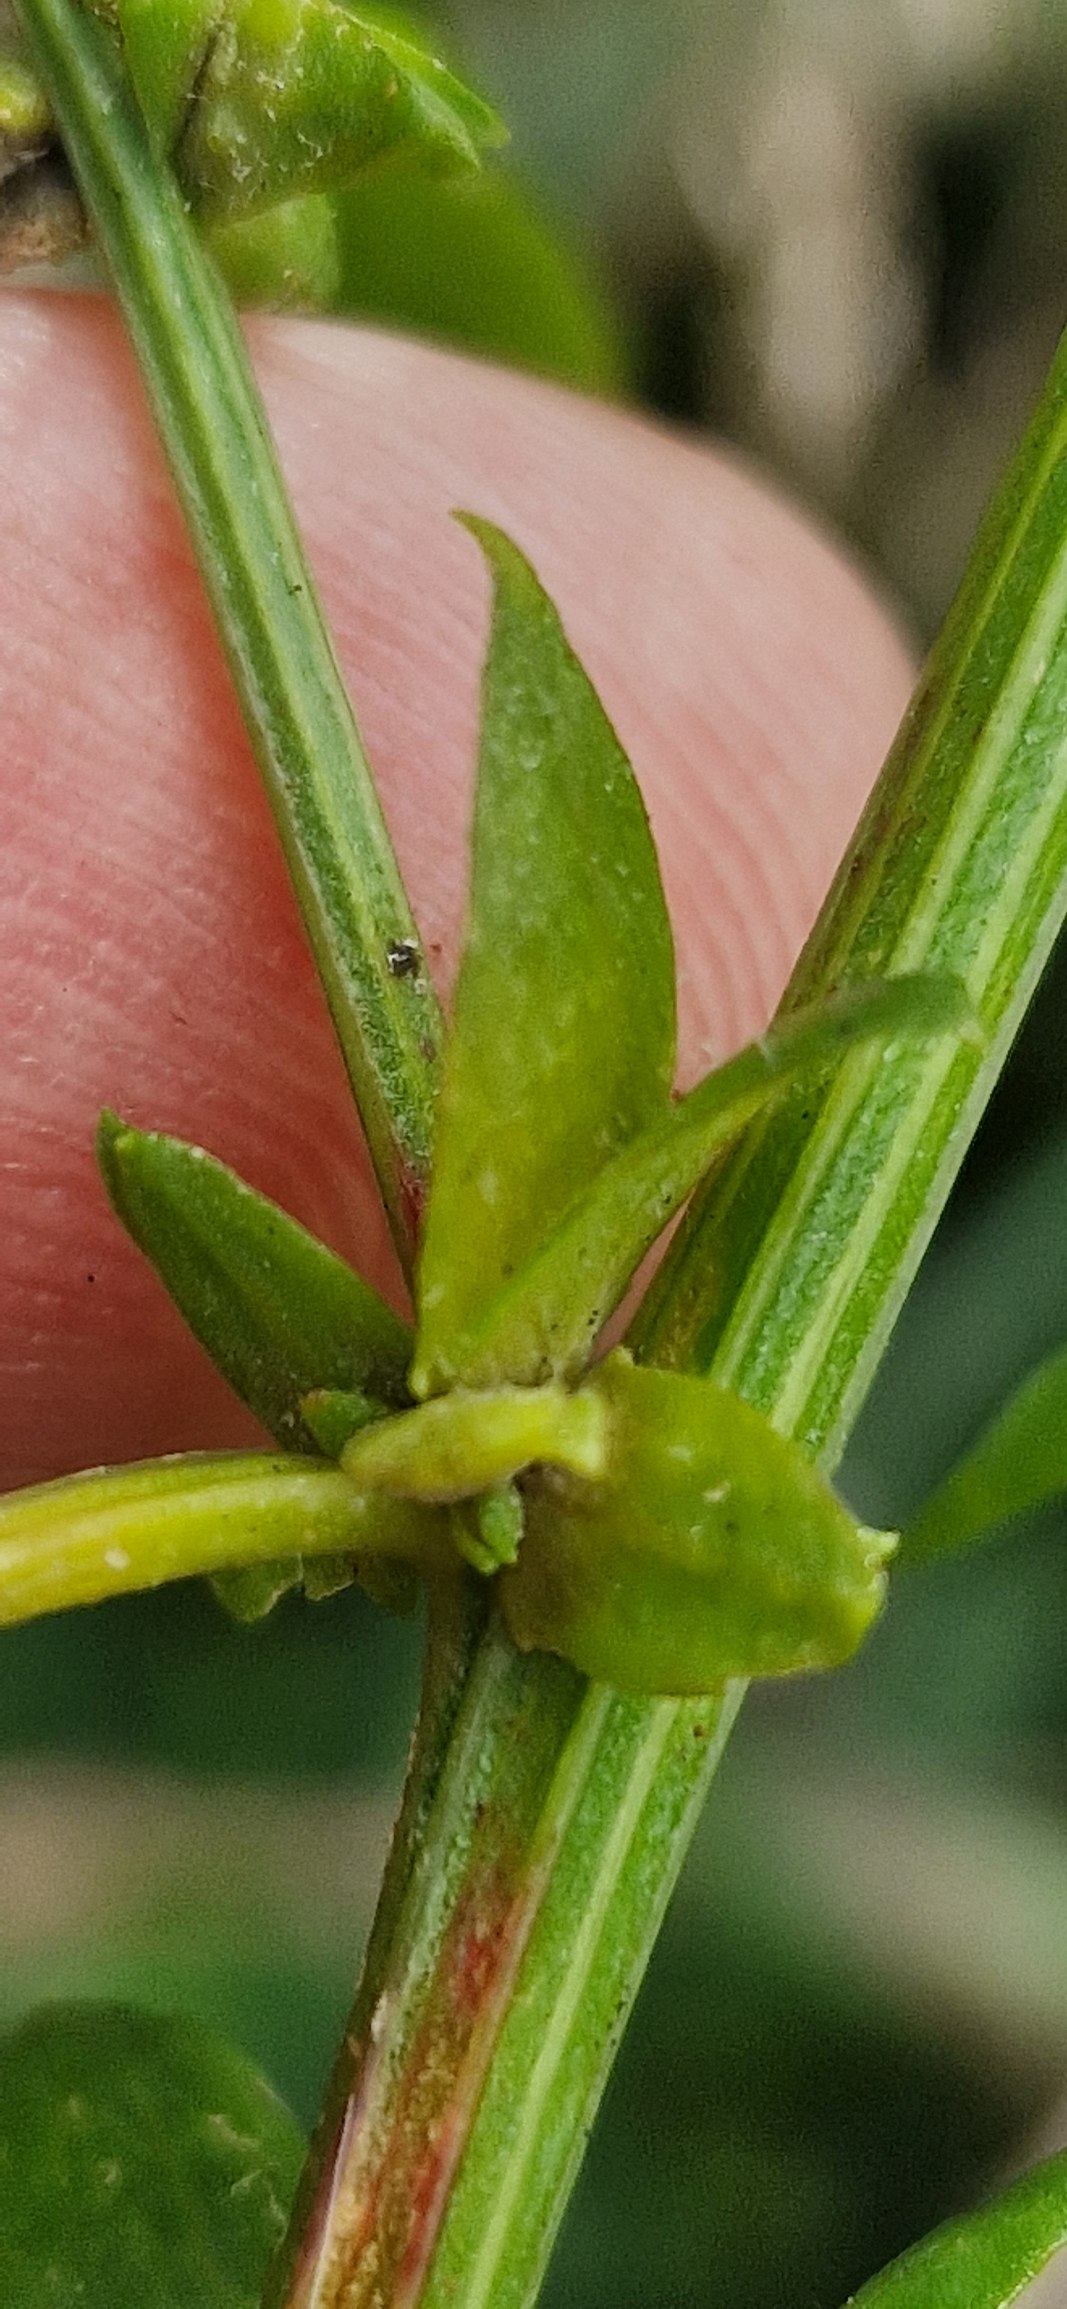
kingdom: Plantae
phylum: Tracheophyta
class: Magnoliopsida
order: Caryophyllales
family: Amaranthaceae
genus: Atriplex
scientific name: Atriplex patula
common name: Svine-mælde
